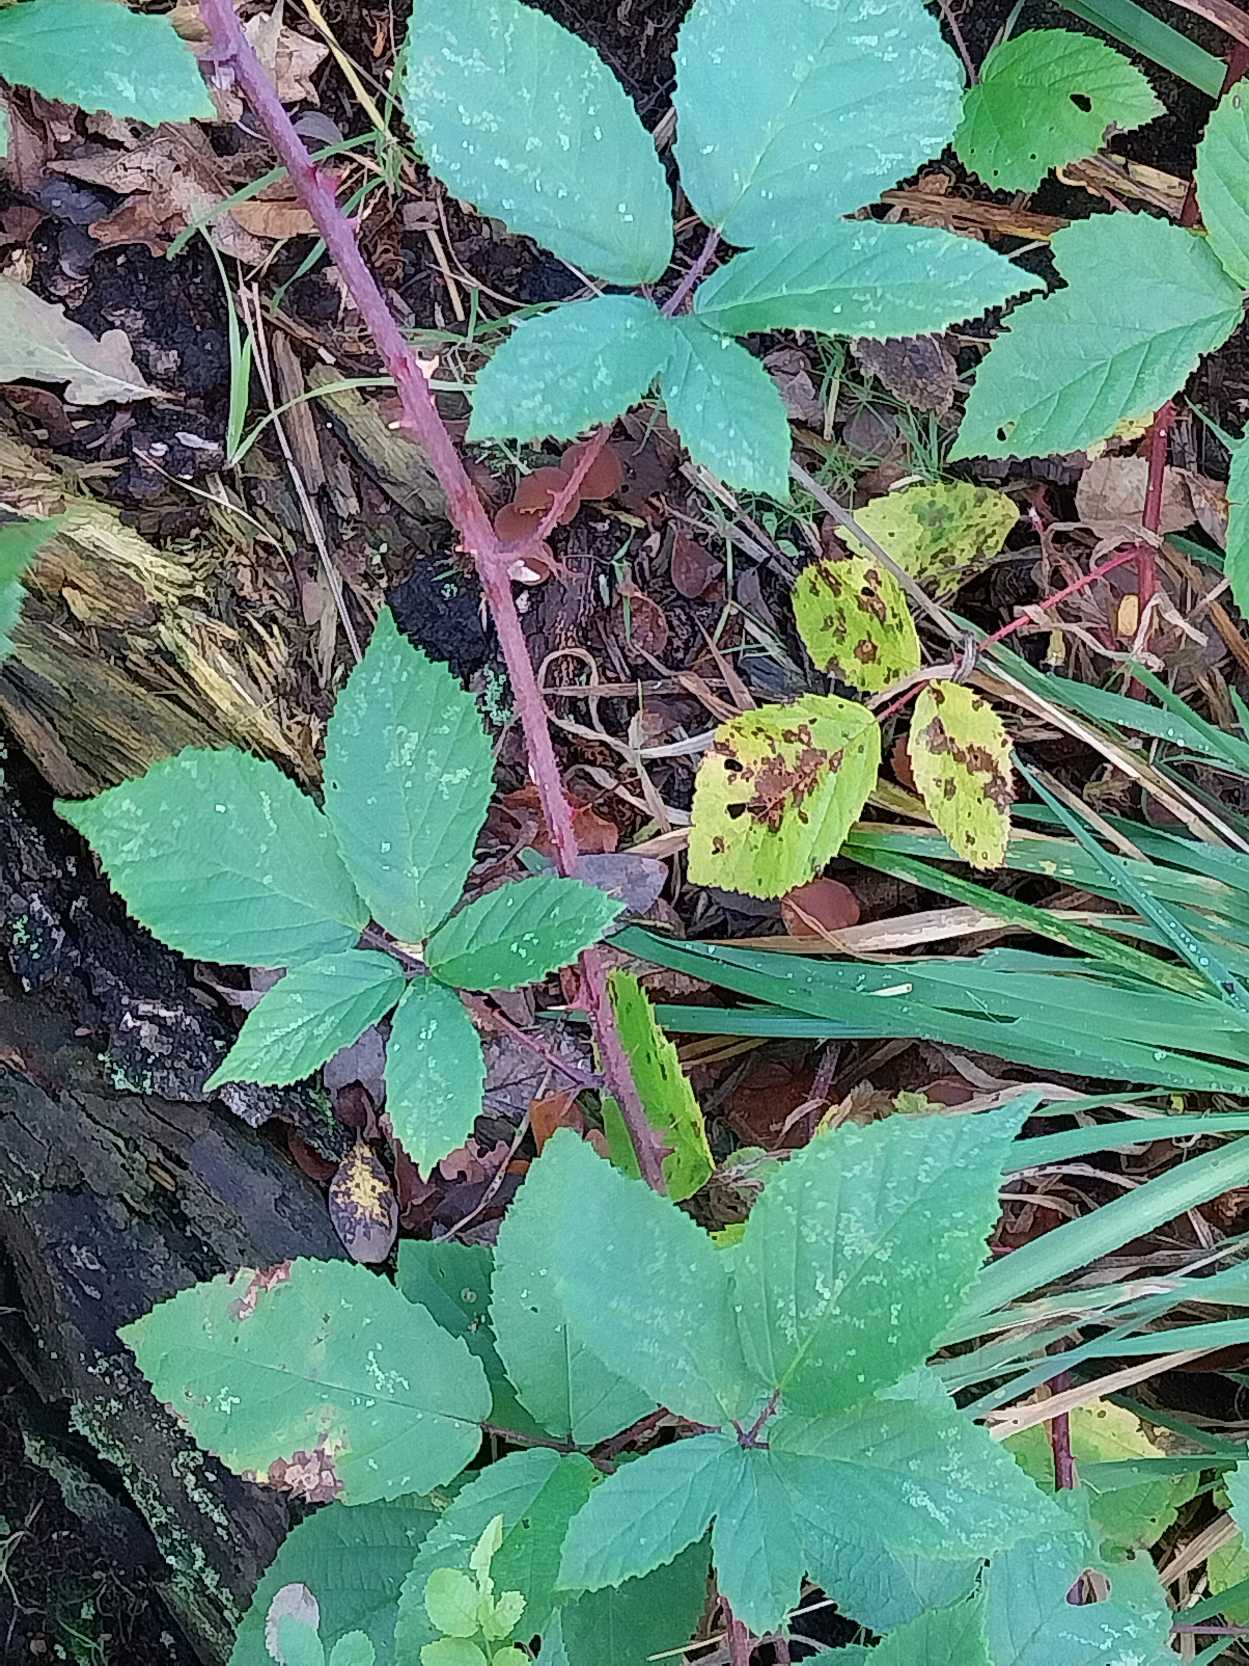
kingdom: Plantae
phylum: Tracheophyta
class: Magnoliopsida
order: Rosales
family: Rosaceae
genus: Rubus
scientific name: Rubus radula
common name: Rasperu brombær
